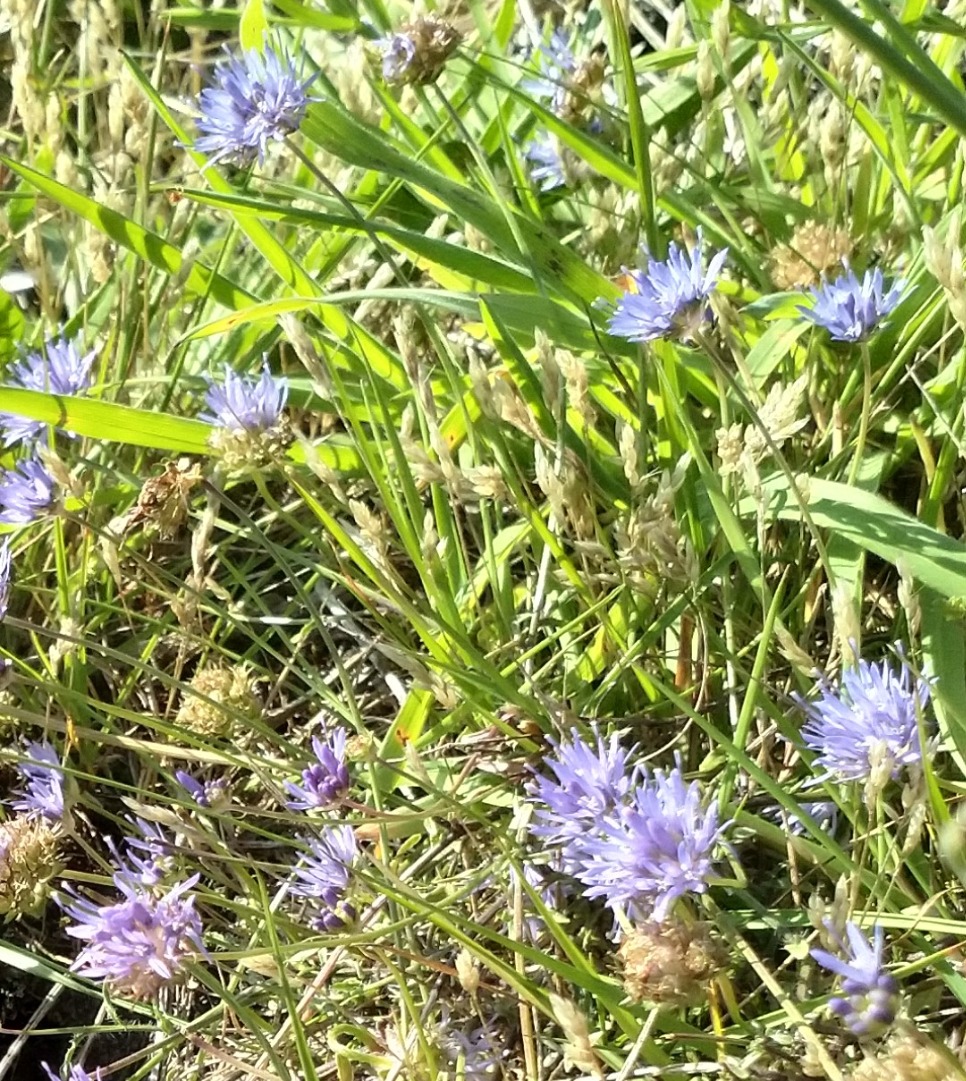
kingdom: Plantae
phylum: Tracheophyta
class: Magnoliopsida
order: Asterales
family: Campanulaceae
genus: Jasione
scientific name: Jasione montana
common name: Blåmunke
